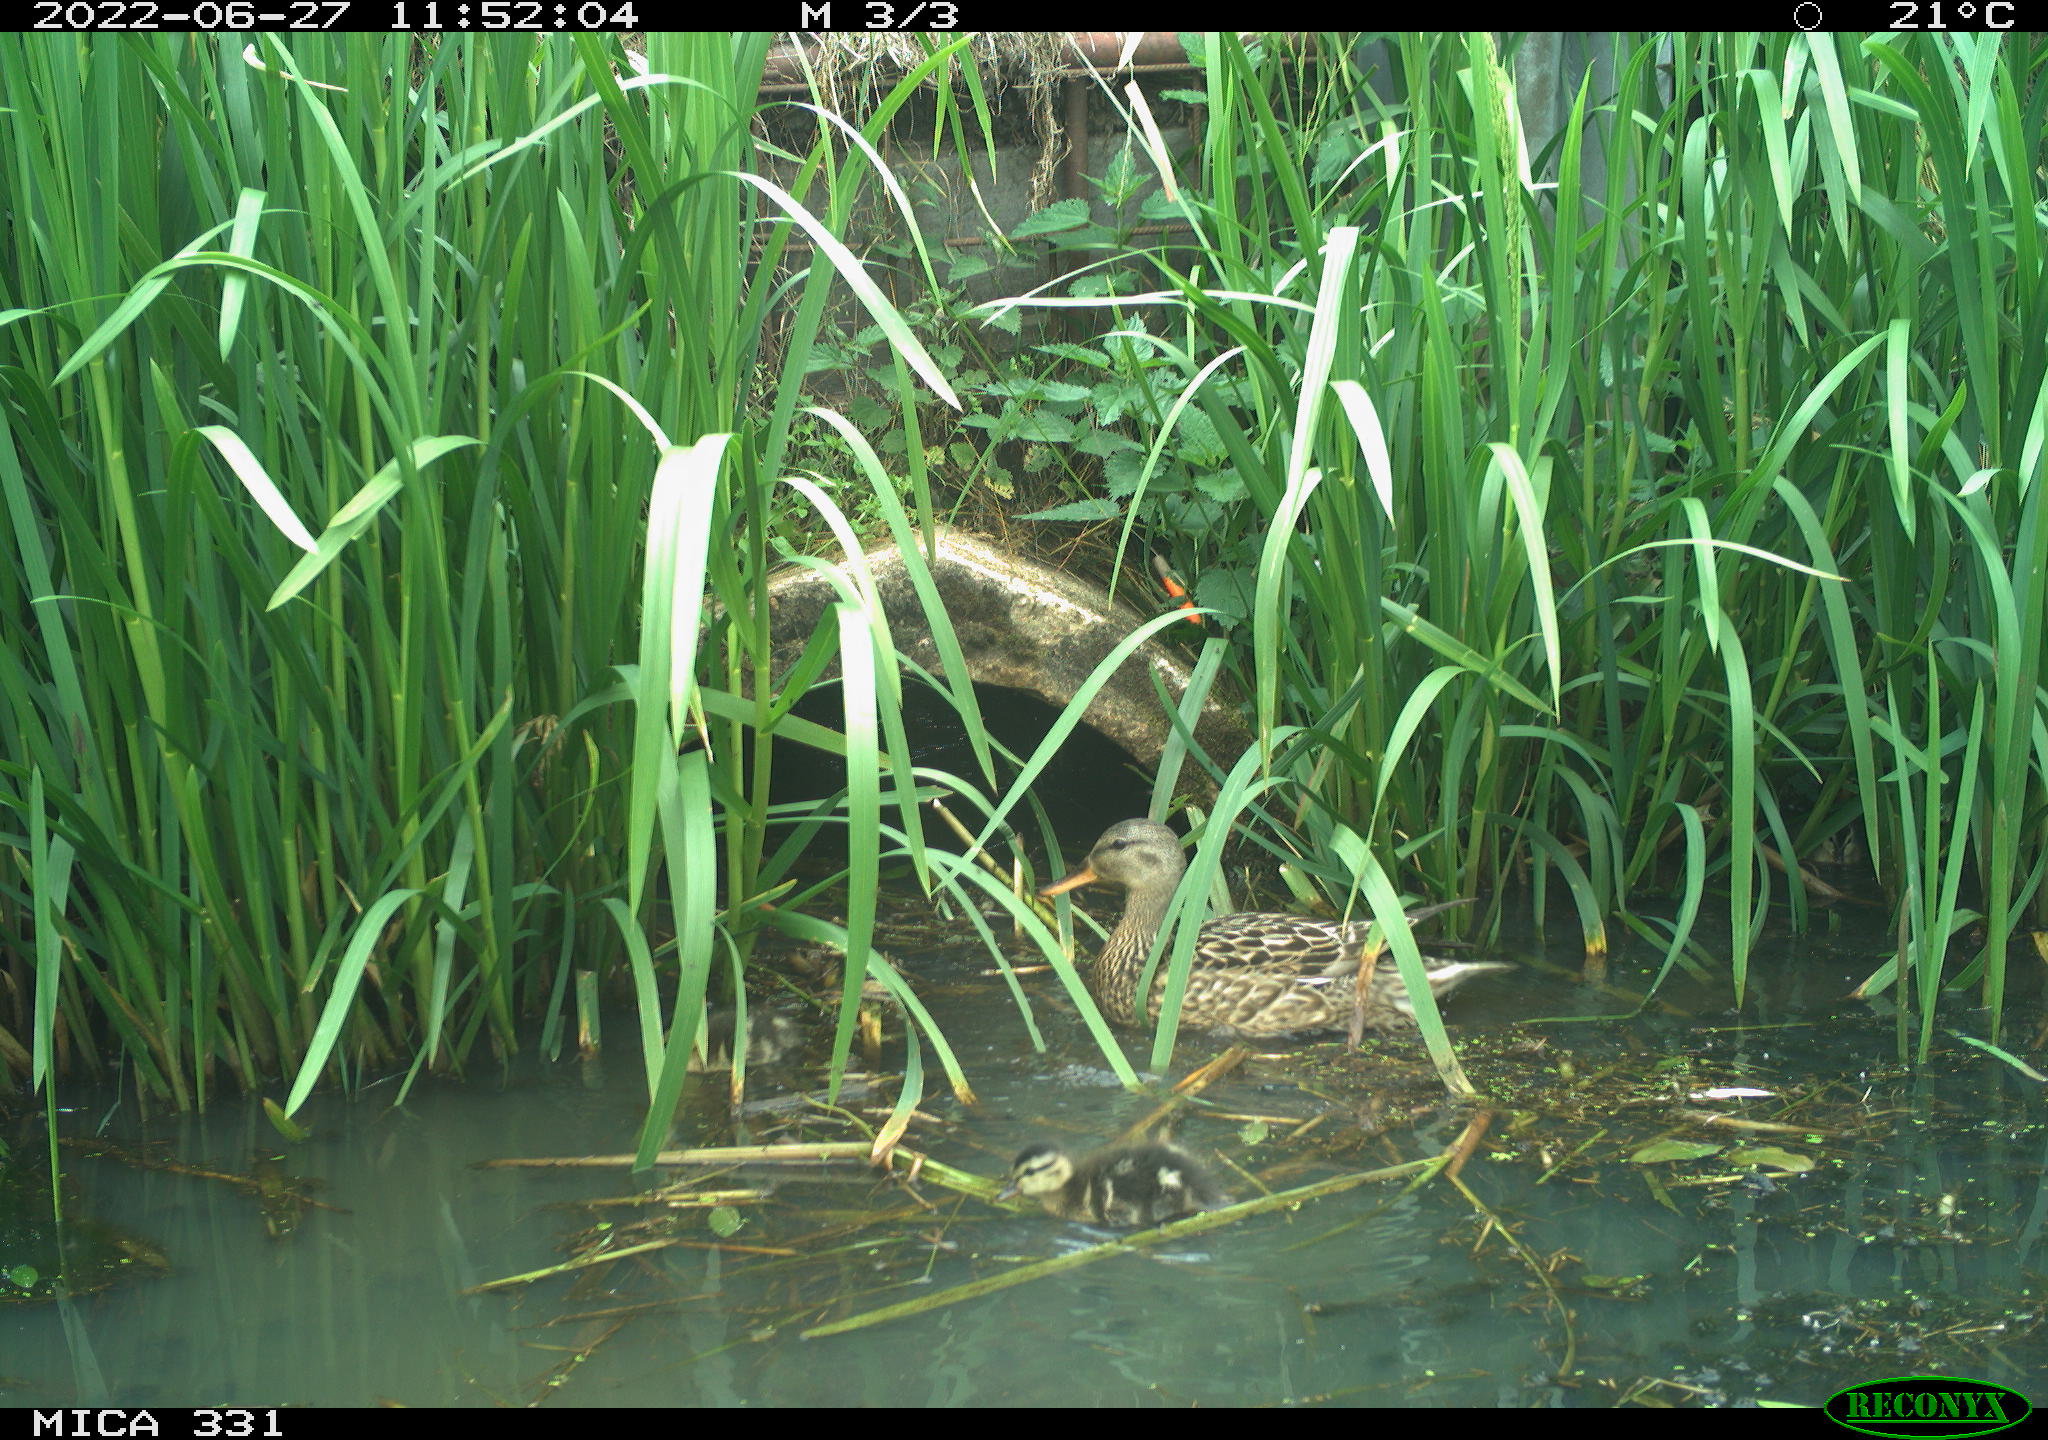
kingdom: Animalia
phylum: Chordata
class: Aves
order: Anseriformes
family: Anatidae
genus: Mareca
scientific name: Mareca strepera
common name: Gadwall
